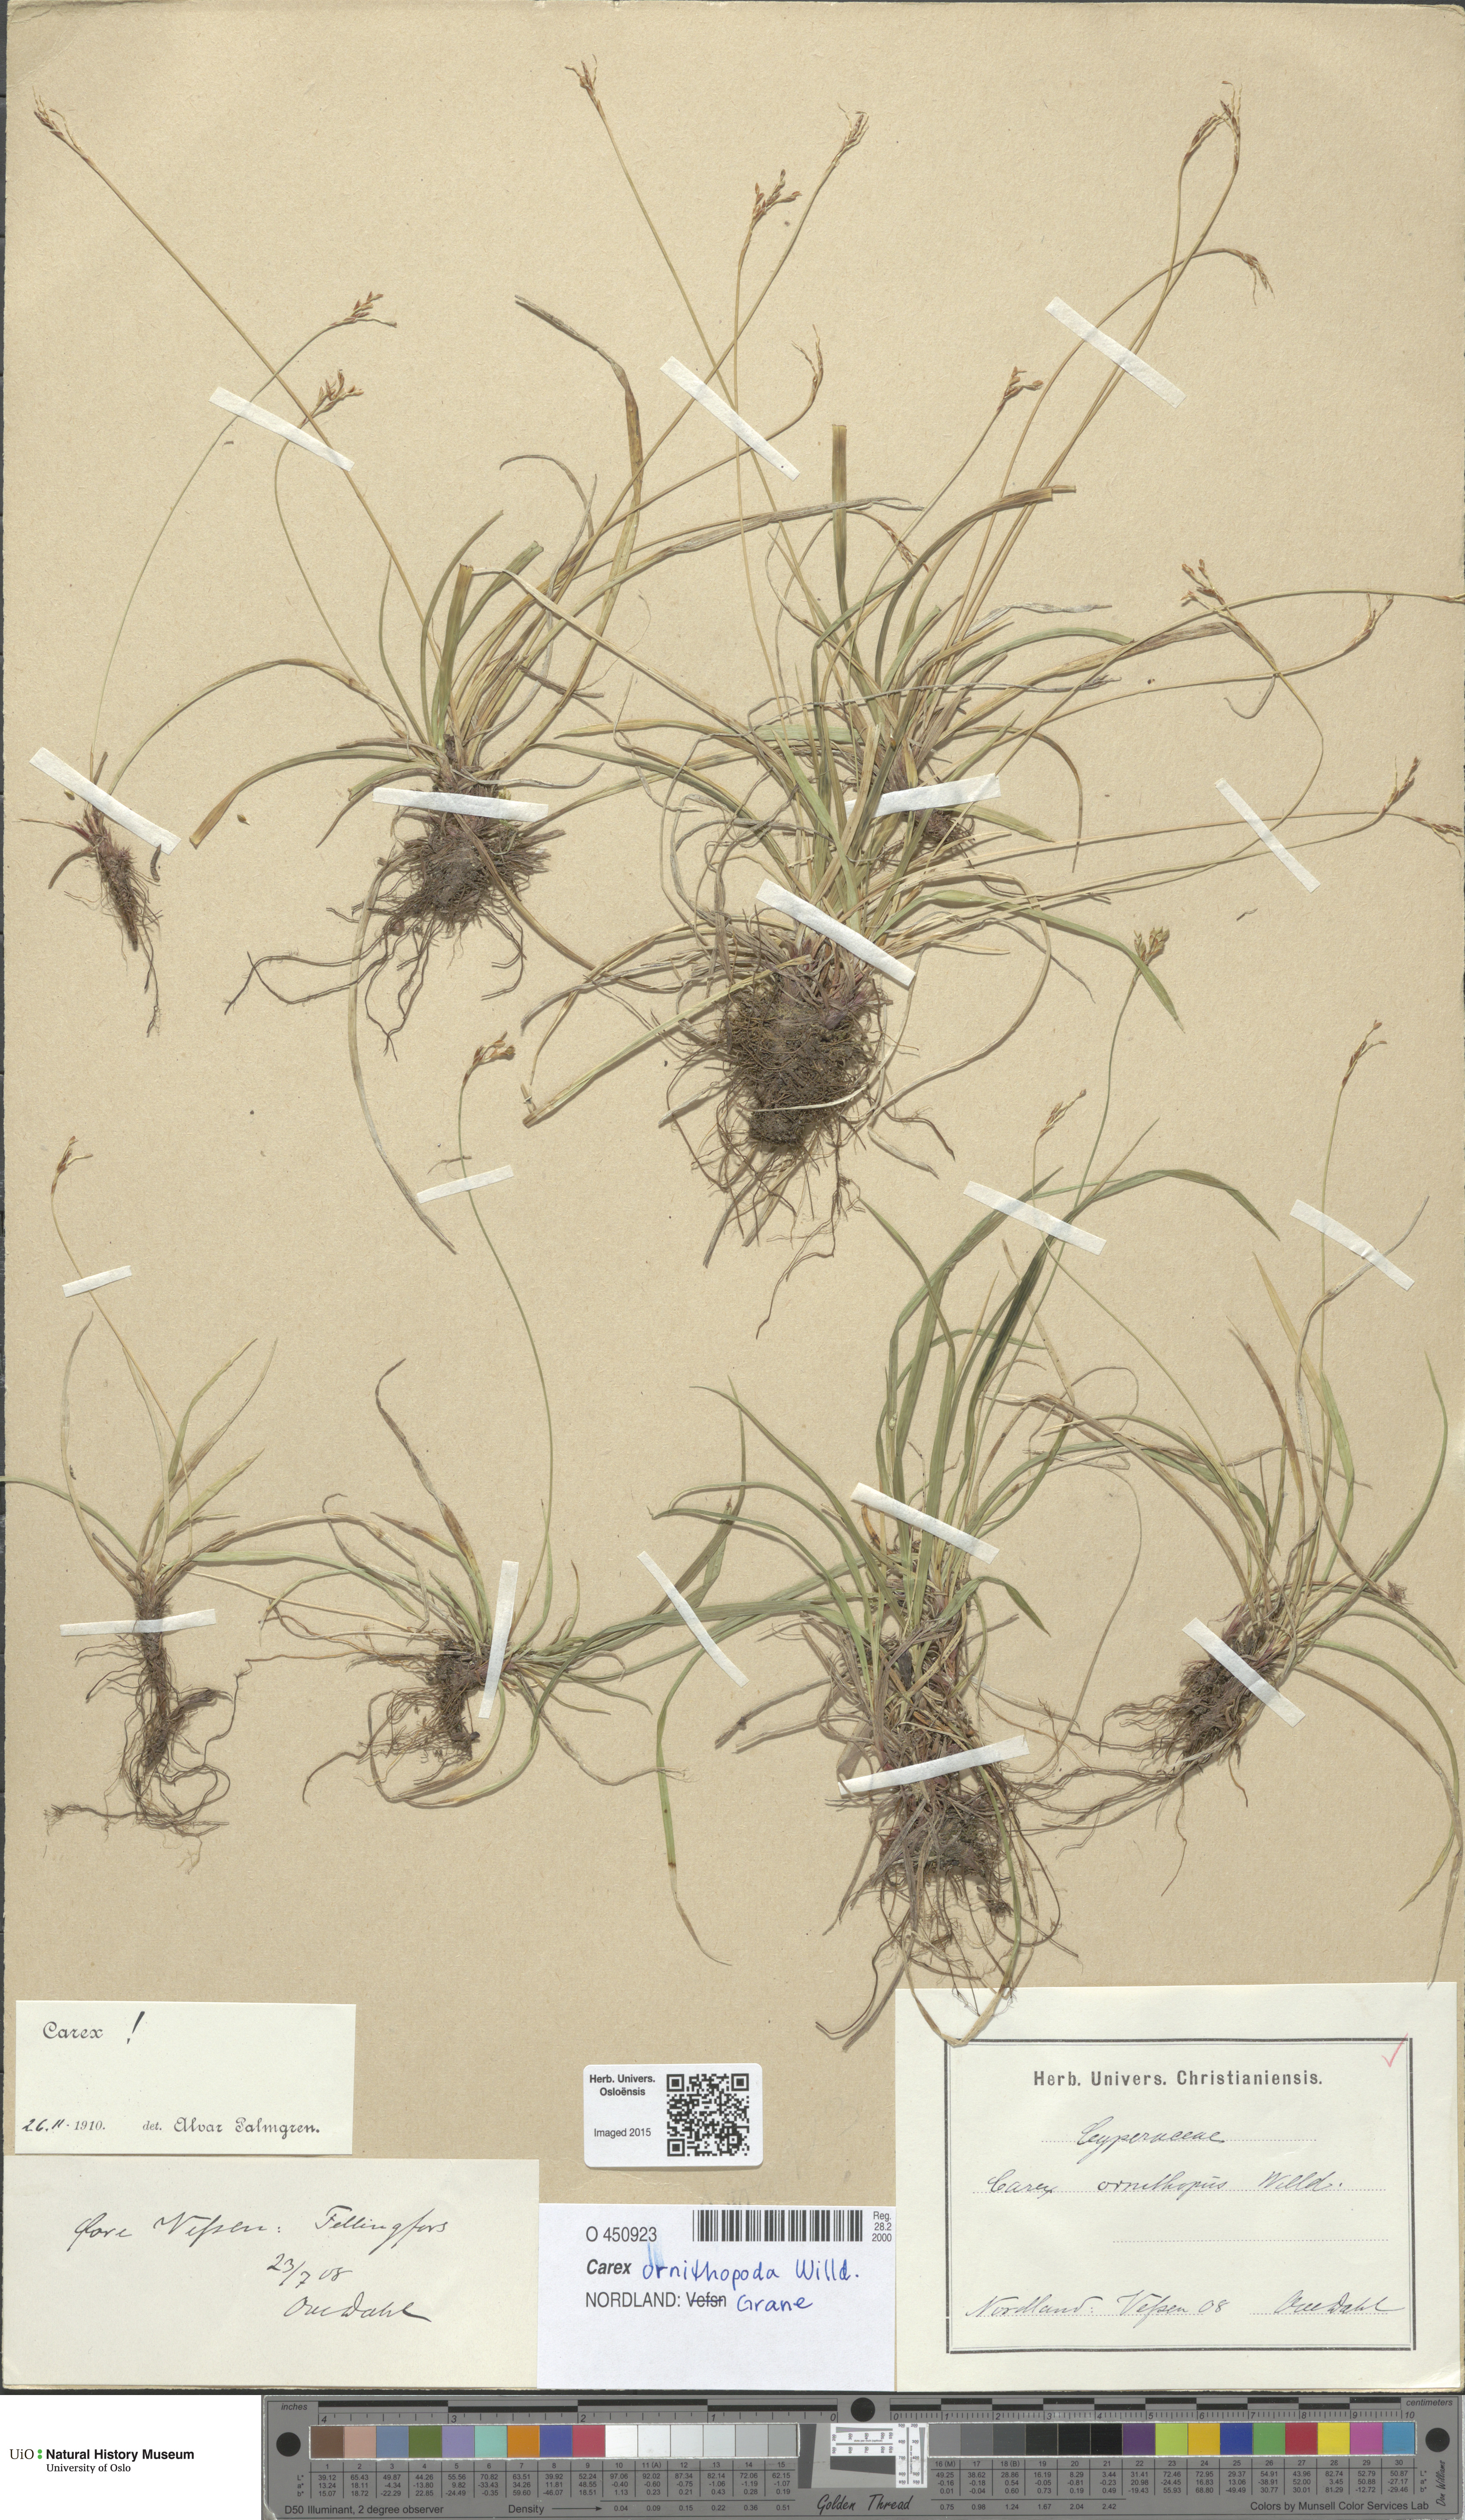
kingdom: Plantae
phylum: Tracheophyta
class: Liliopsida
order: Poales
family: Cyperaceae
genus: Carex
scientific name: Carex ornithopoda
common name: Bird's-foot sedge
